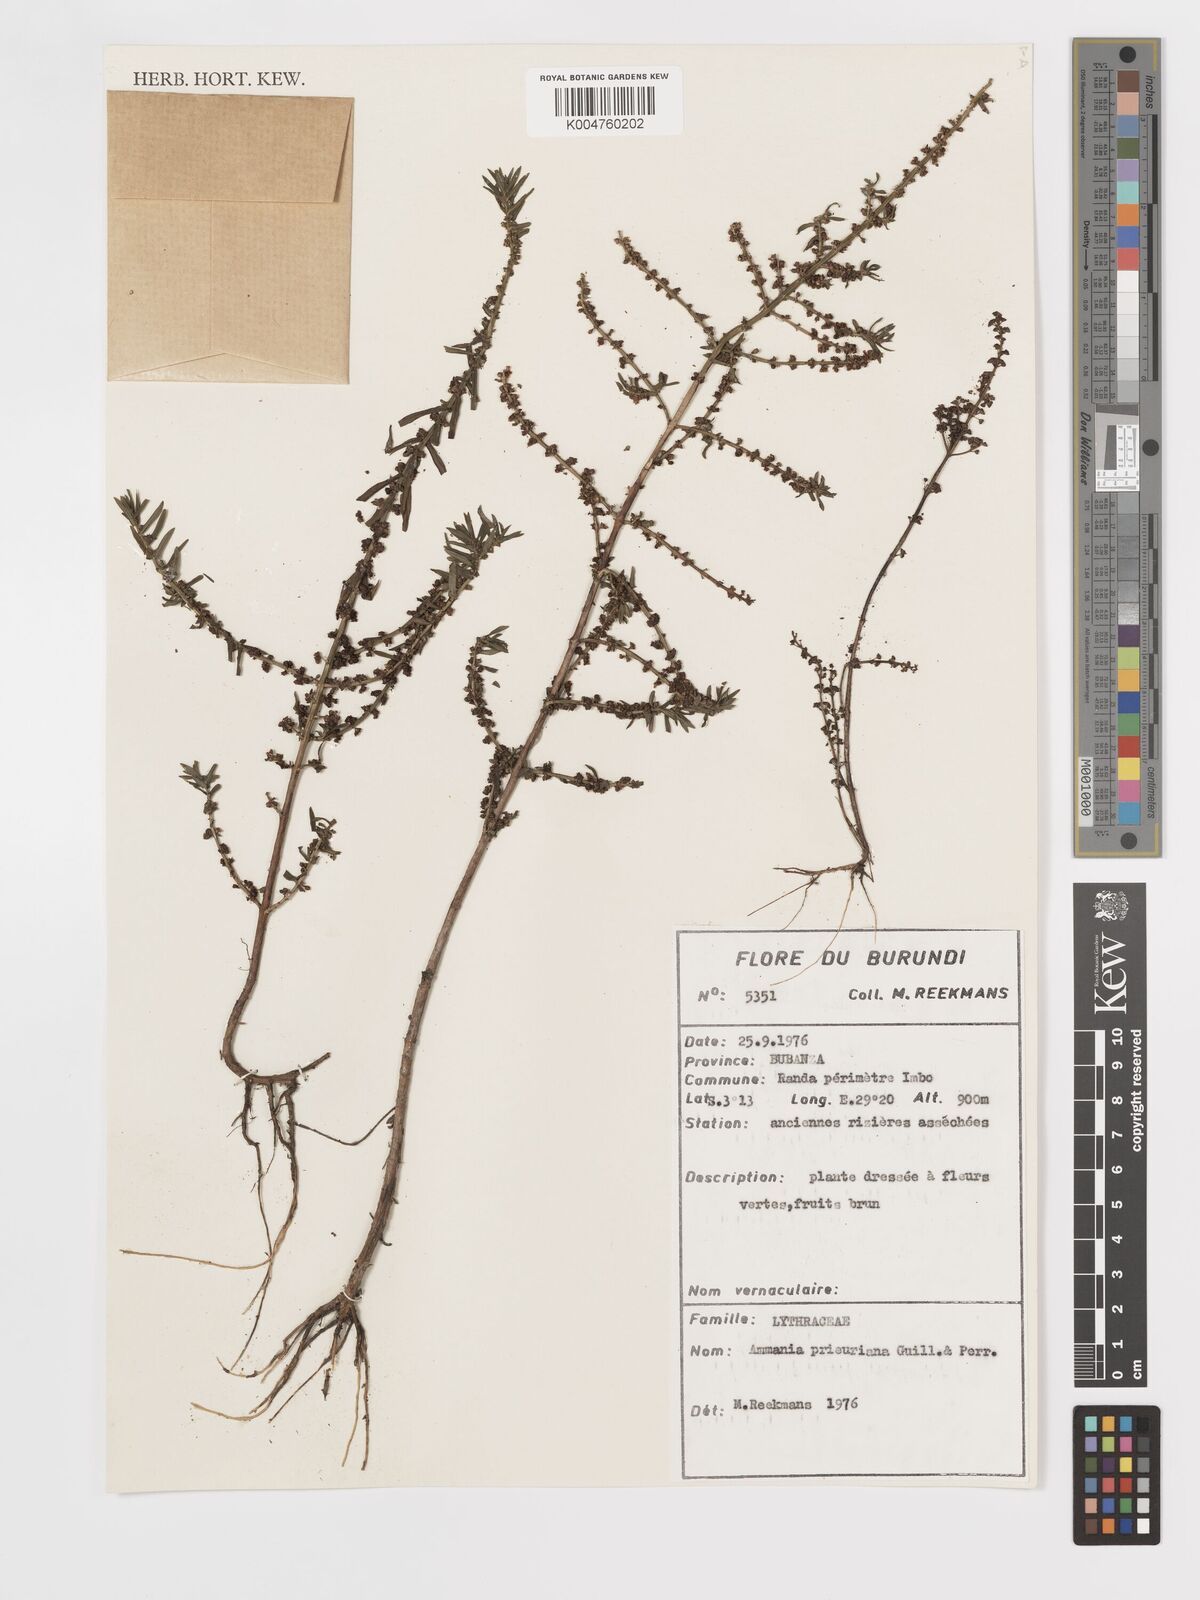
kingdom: Plantae
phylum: Tracheophyta
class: Magnoliopsida
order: Myrtales
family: Lythraceae
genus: Ammannia
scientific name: Ammannia prieuriana
